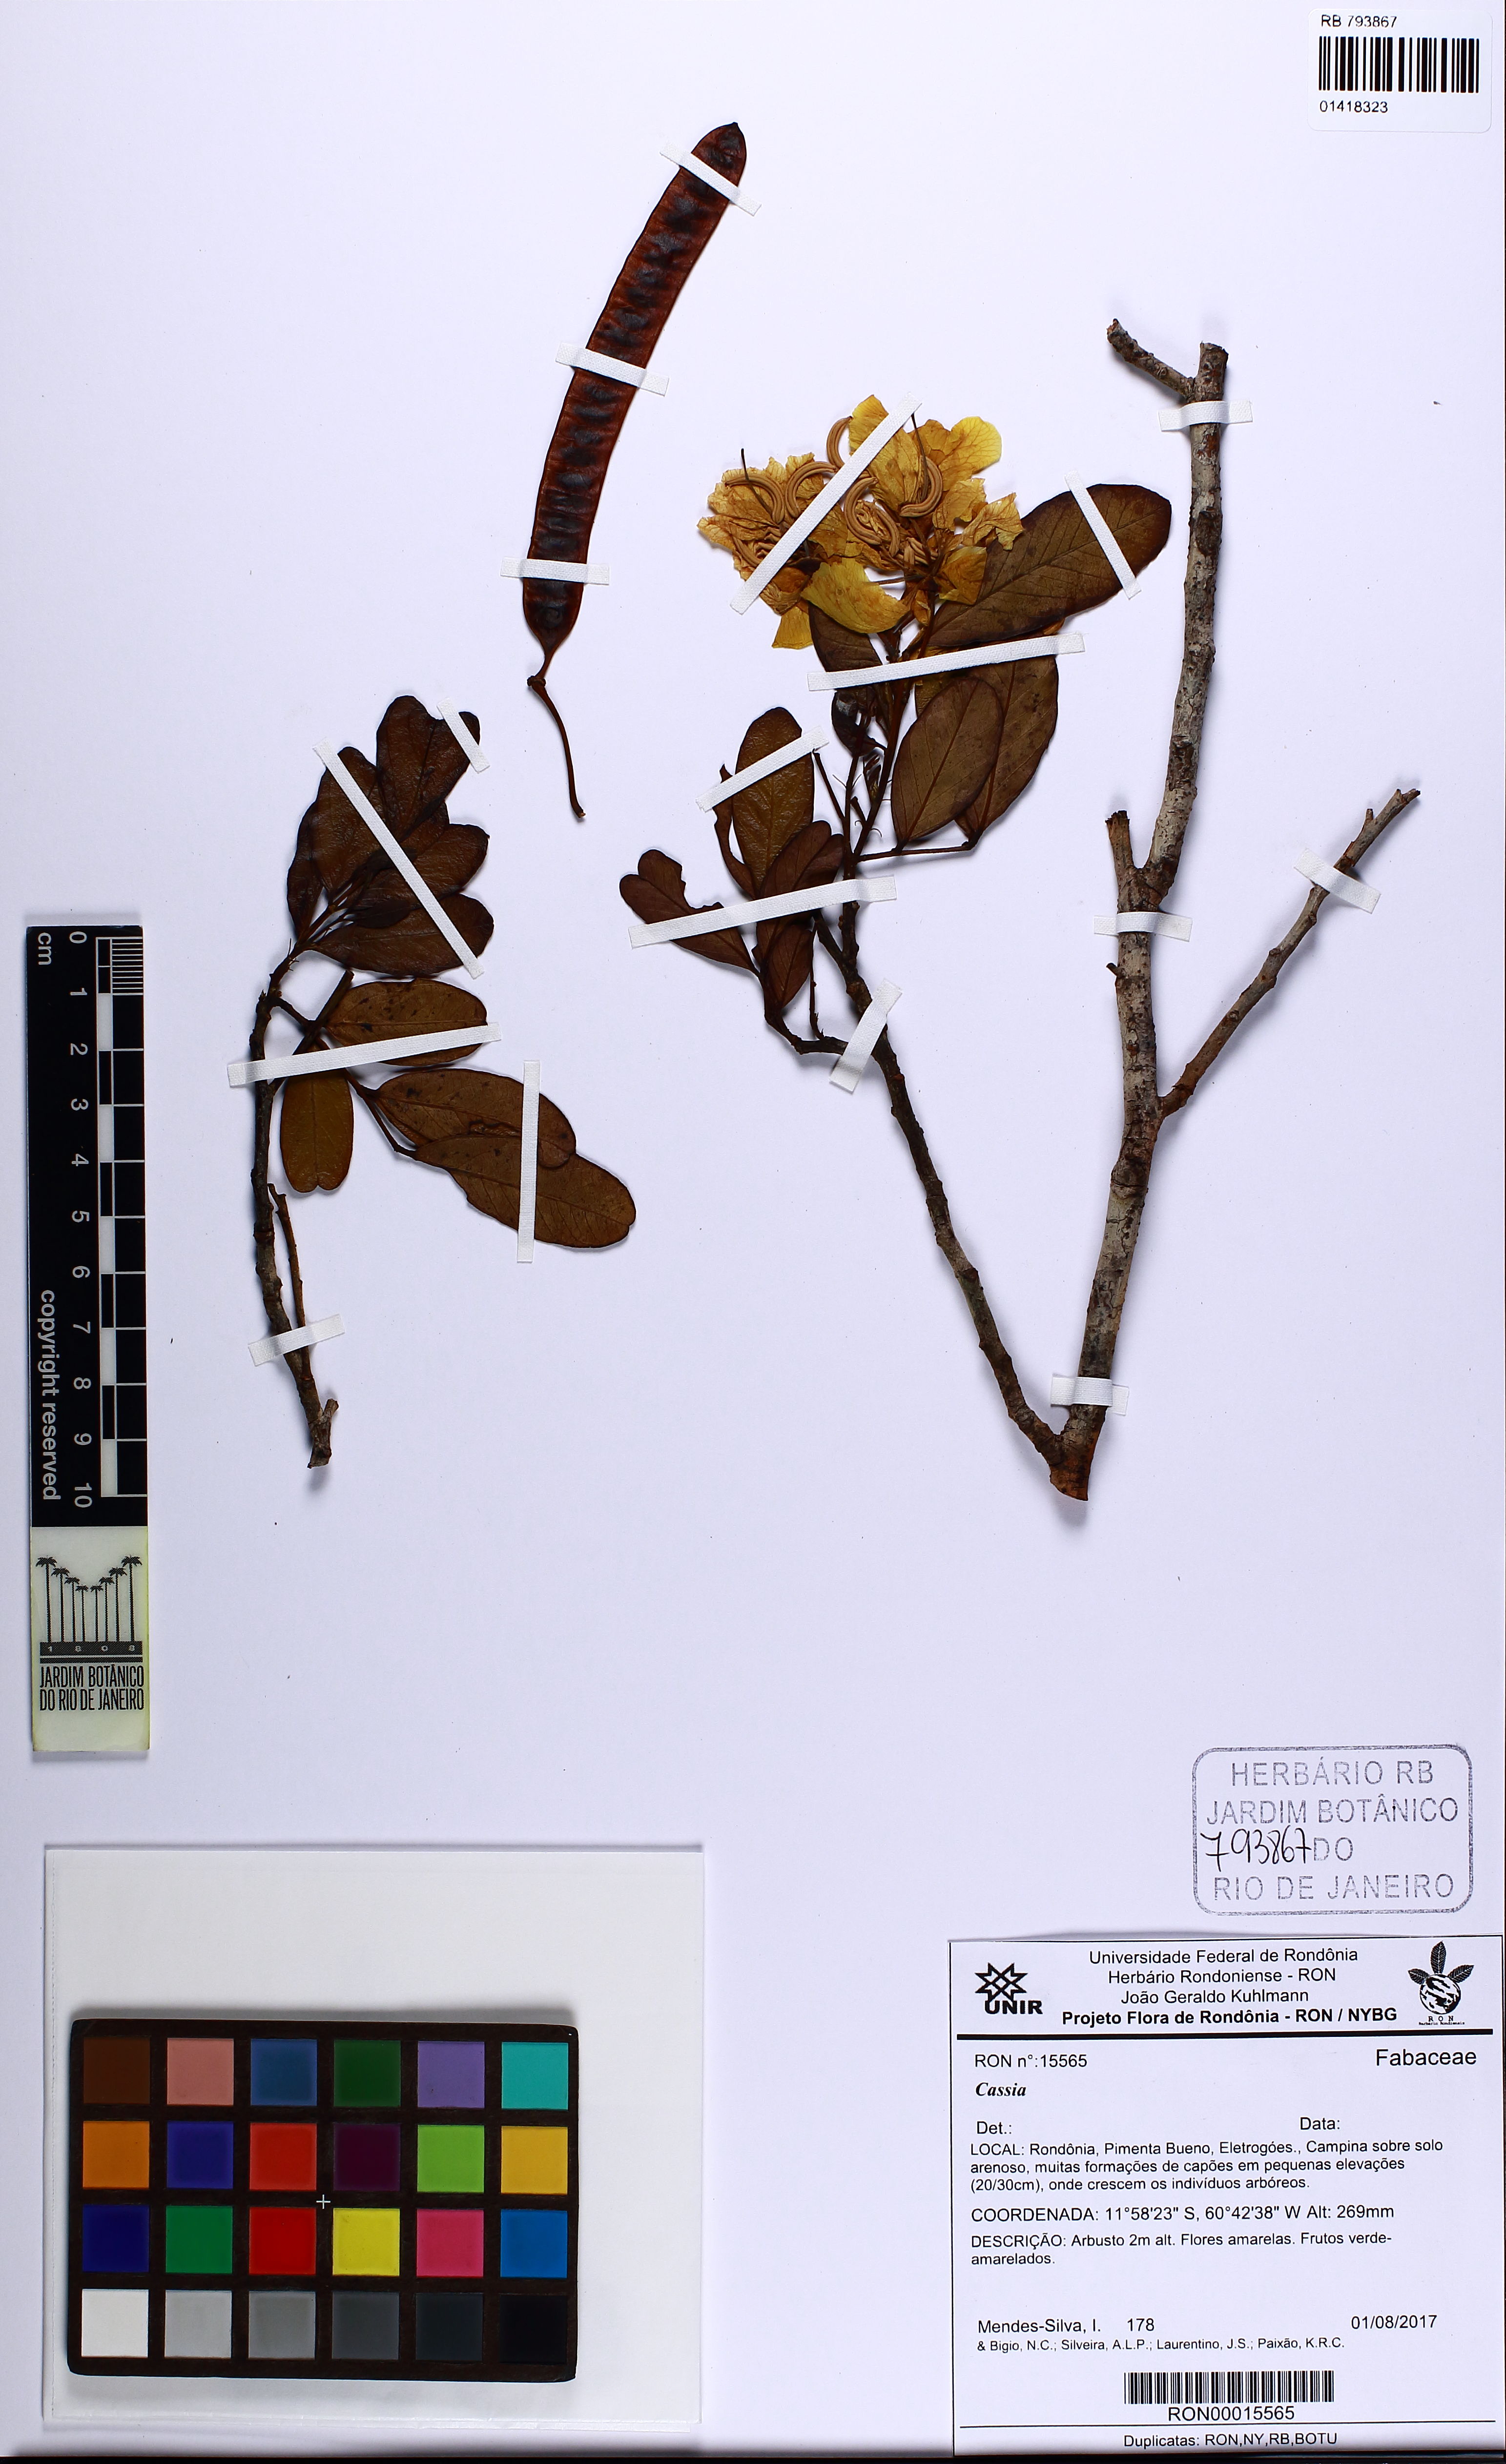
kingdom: Plantae
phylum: Tracheophyta
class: Magnoliopsida
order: Fabales
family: Fabaceae
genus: Senna
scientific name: Senna kuhlmannii
